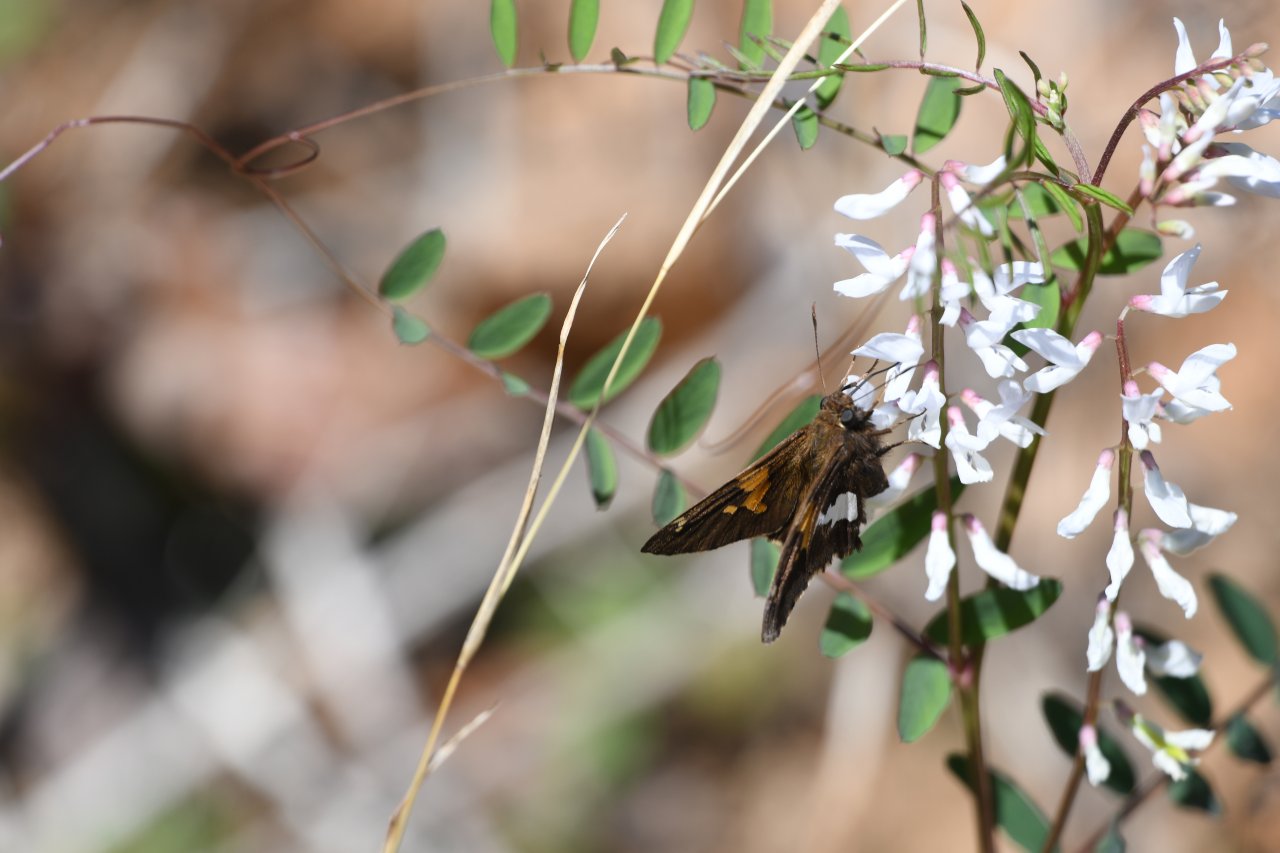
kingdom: Animalia
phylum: Arthropoda
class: Insecta
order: Lepidoptera
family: Hesperiidae
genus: Epargyreus
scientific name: Epargyreus clarus
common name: Silver-spotted Skipper
